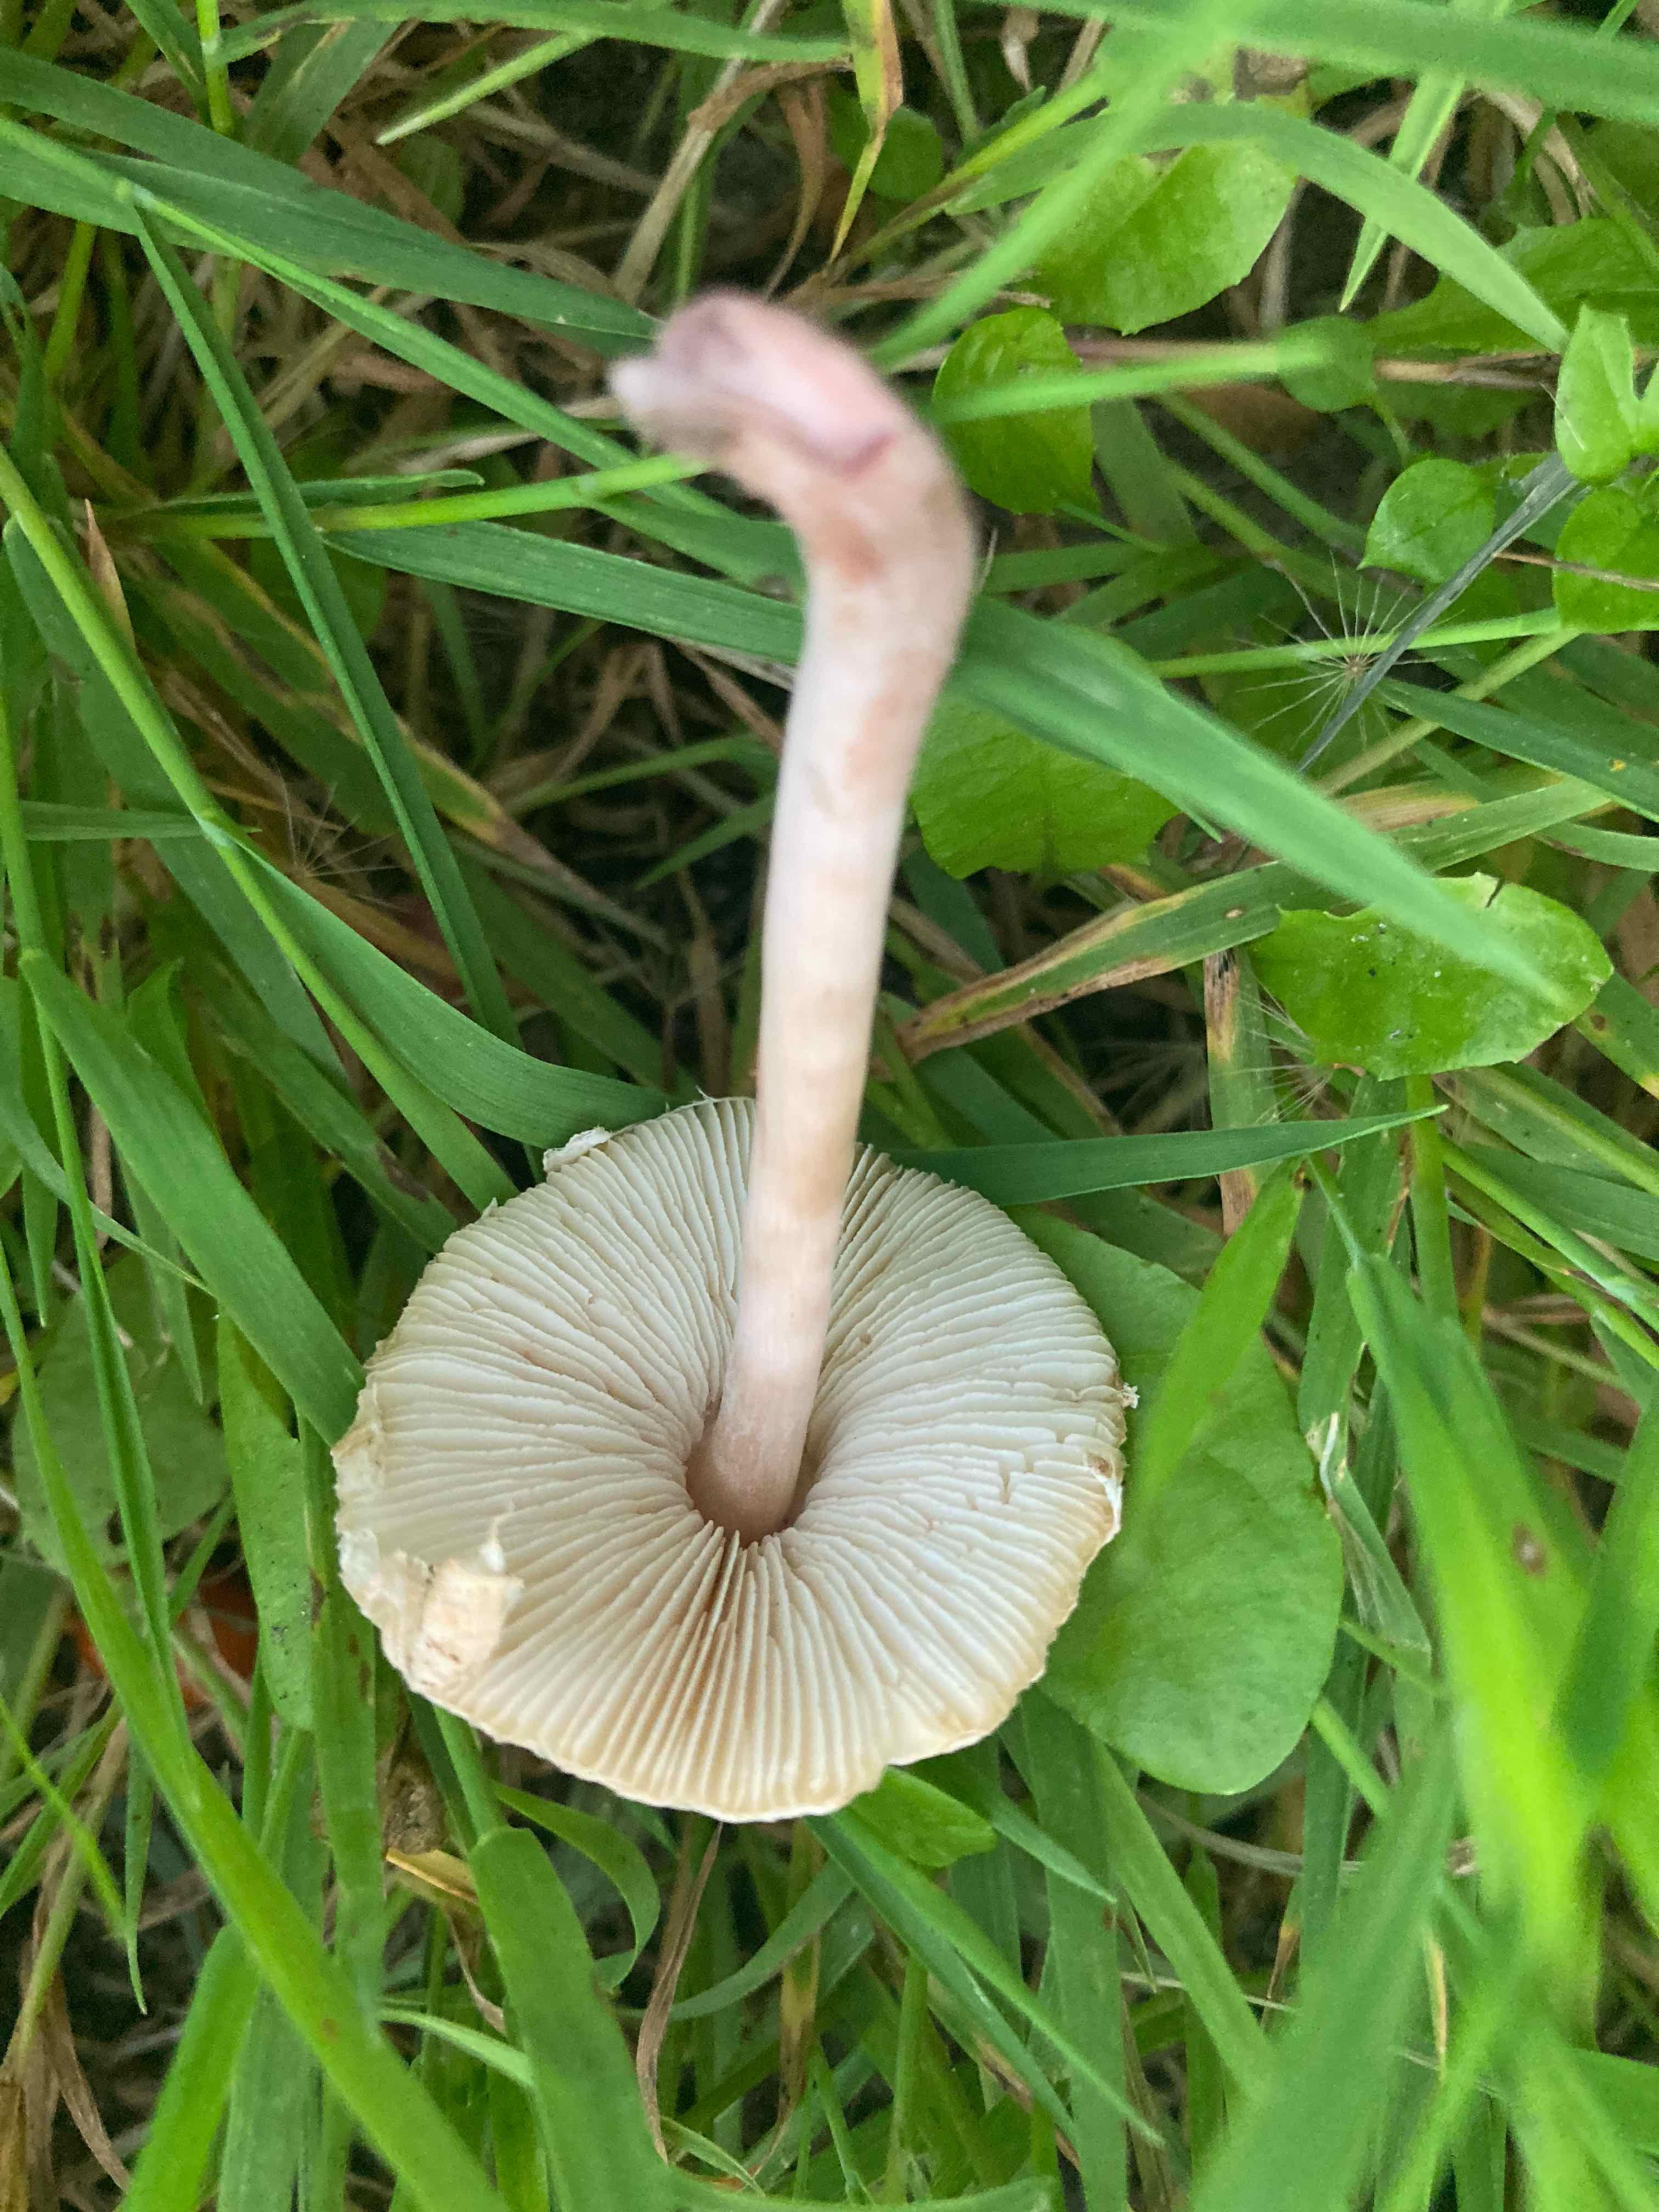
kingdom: Fungi
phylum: Basidiomycota
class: Agaricomycetes
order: Agaricales
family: Agaricaceae
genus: Lepiota
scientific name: Lepiota
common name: parasolhat
